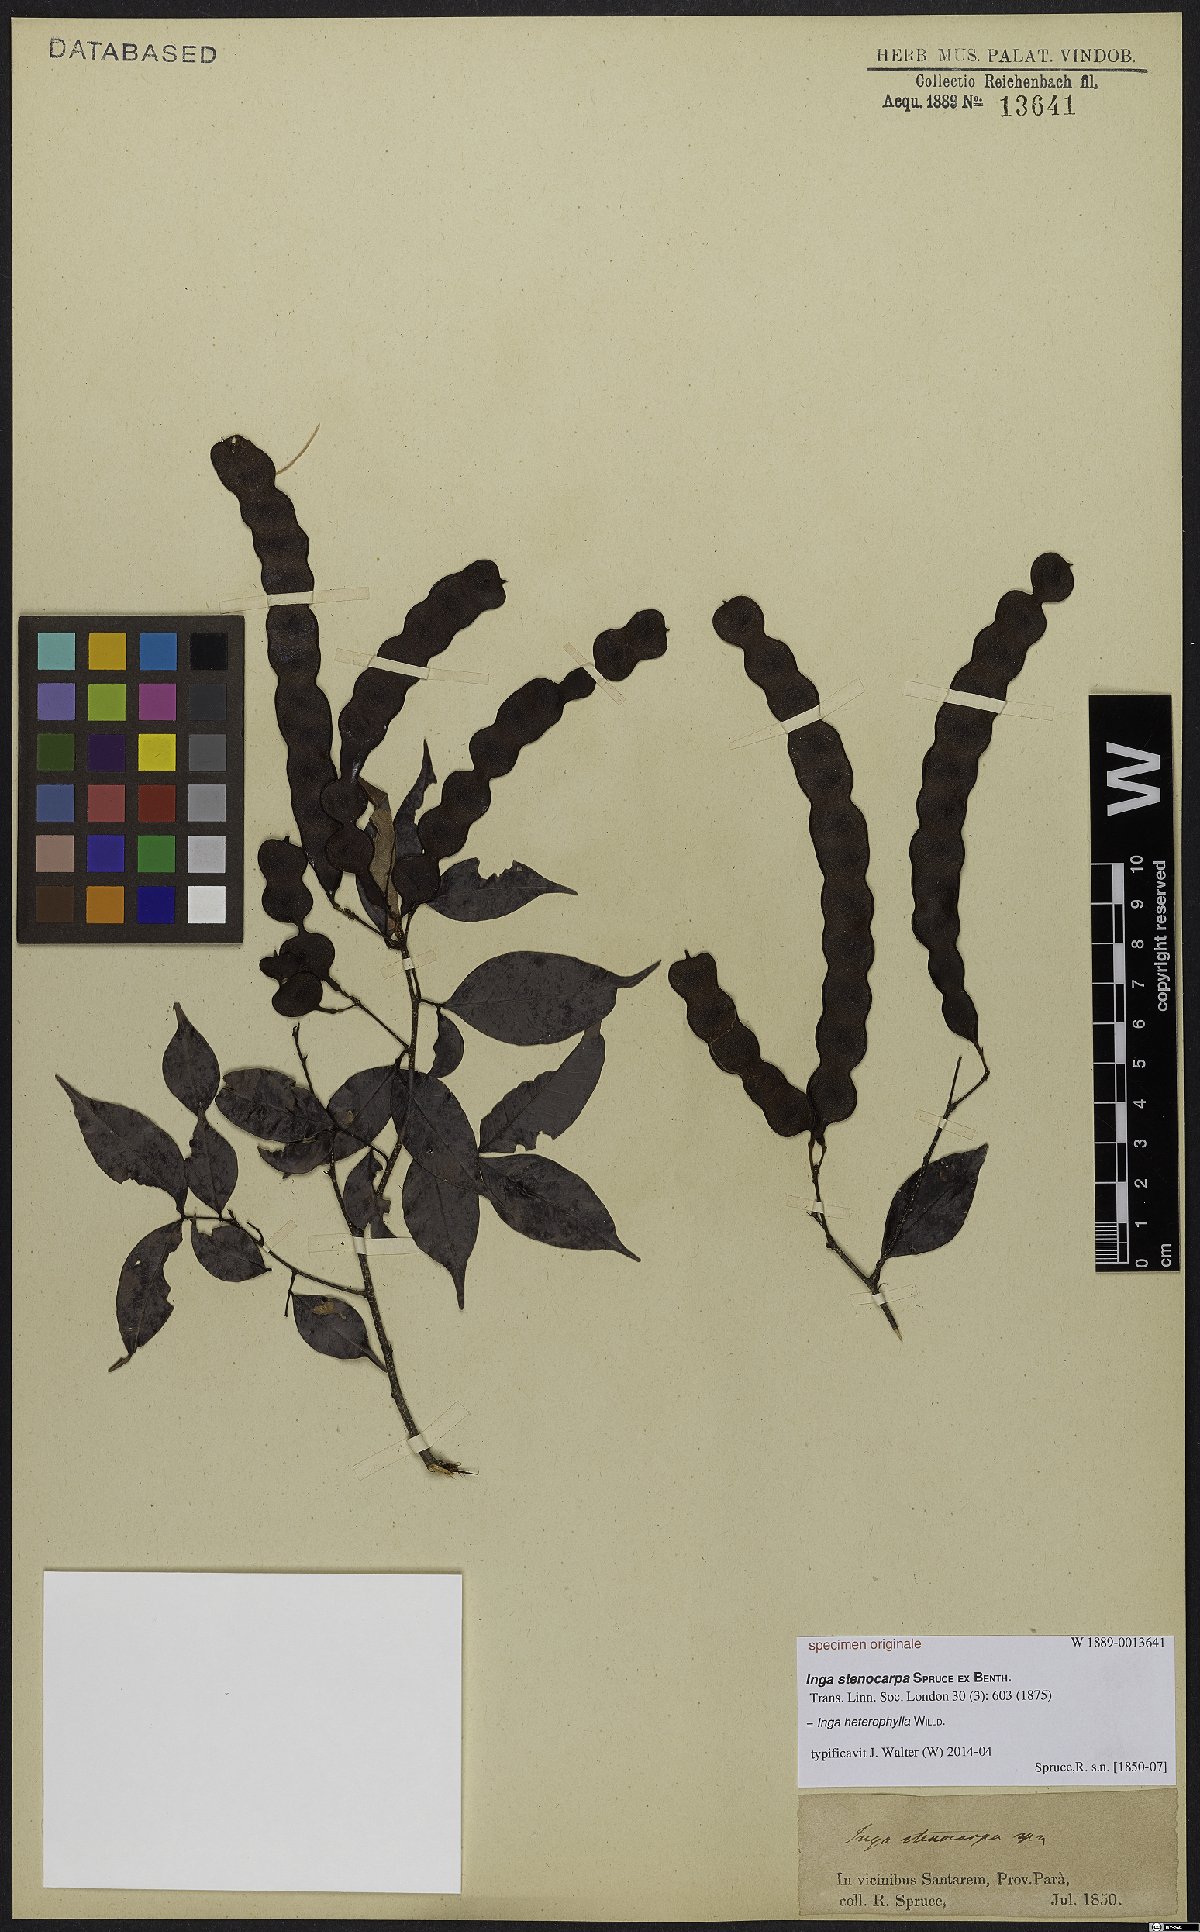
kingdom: Plantae
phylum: Tracheophyta
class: Magnoliopsida
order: Fabales
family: Fabaceae
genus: Inga
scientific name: Inga heterophylla
